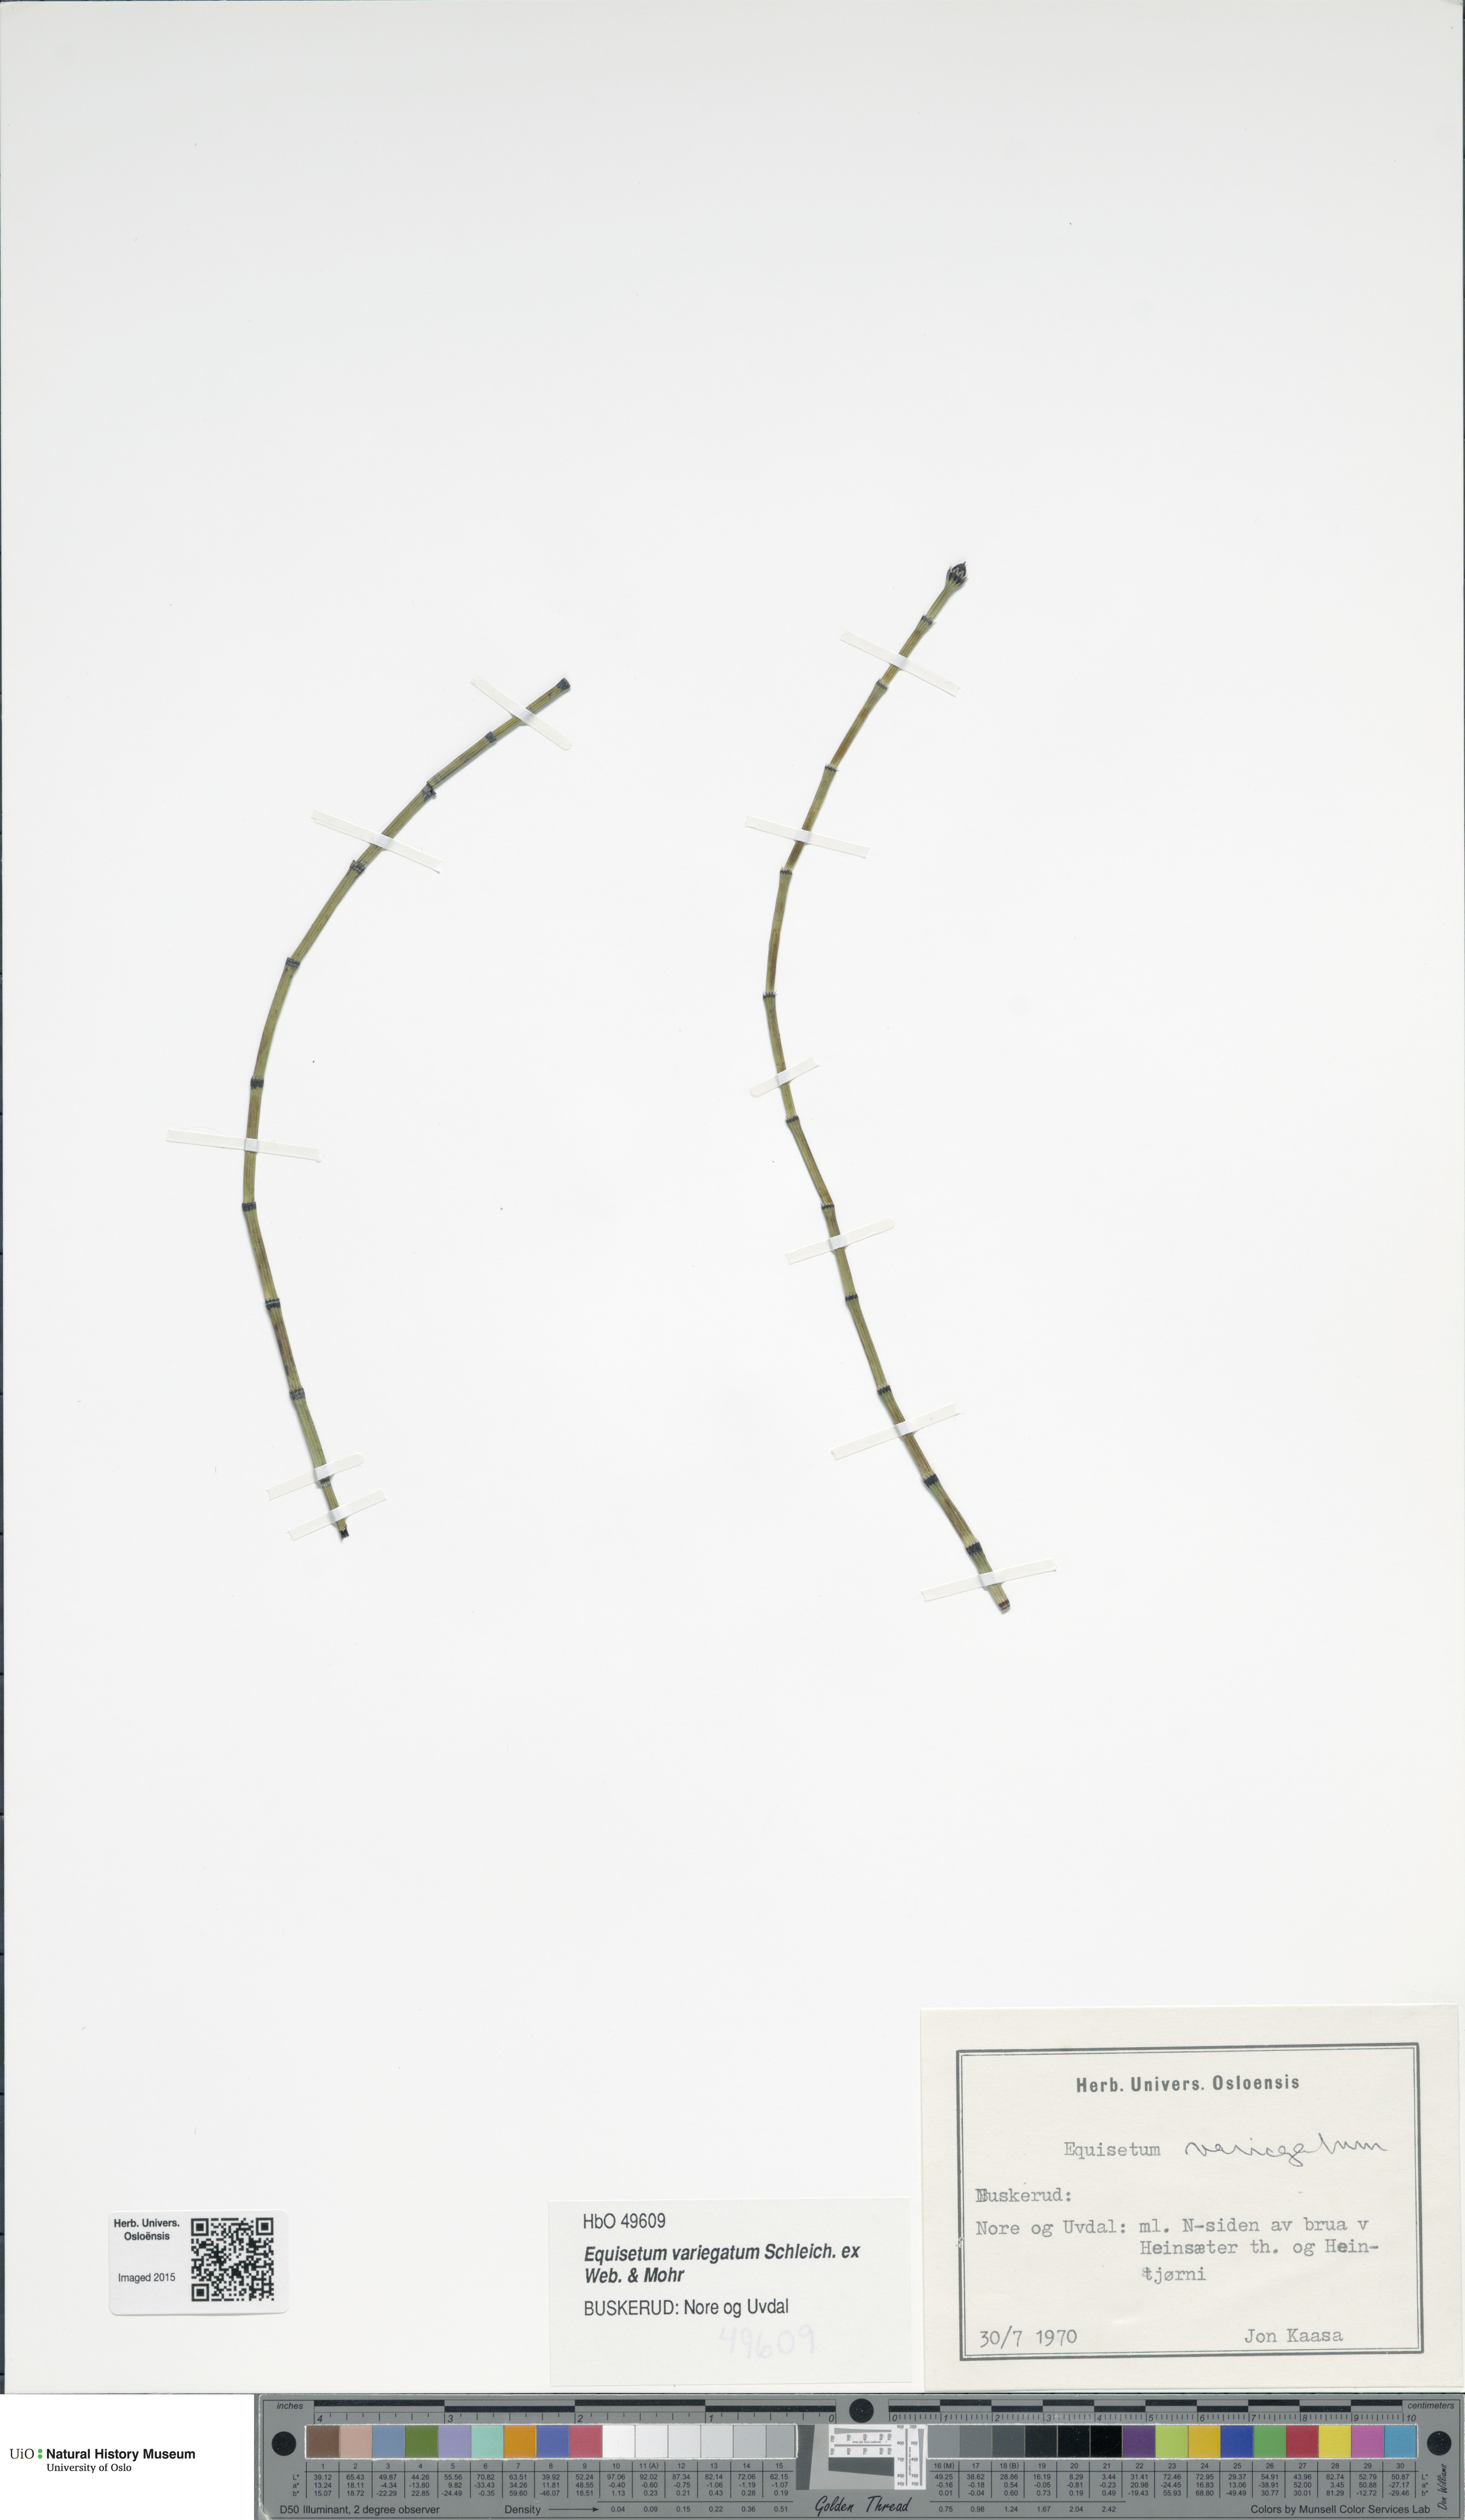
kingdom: Plantae
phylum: Tracheophyta
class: Polypodiopsida
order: Equisetales
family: Equisetaceae
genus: Equisetum
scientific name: Equisetum variegatum
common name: Variegated horsetail
